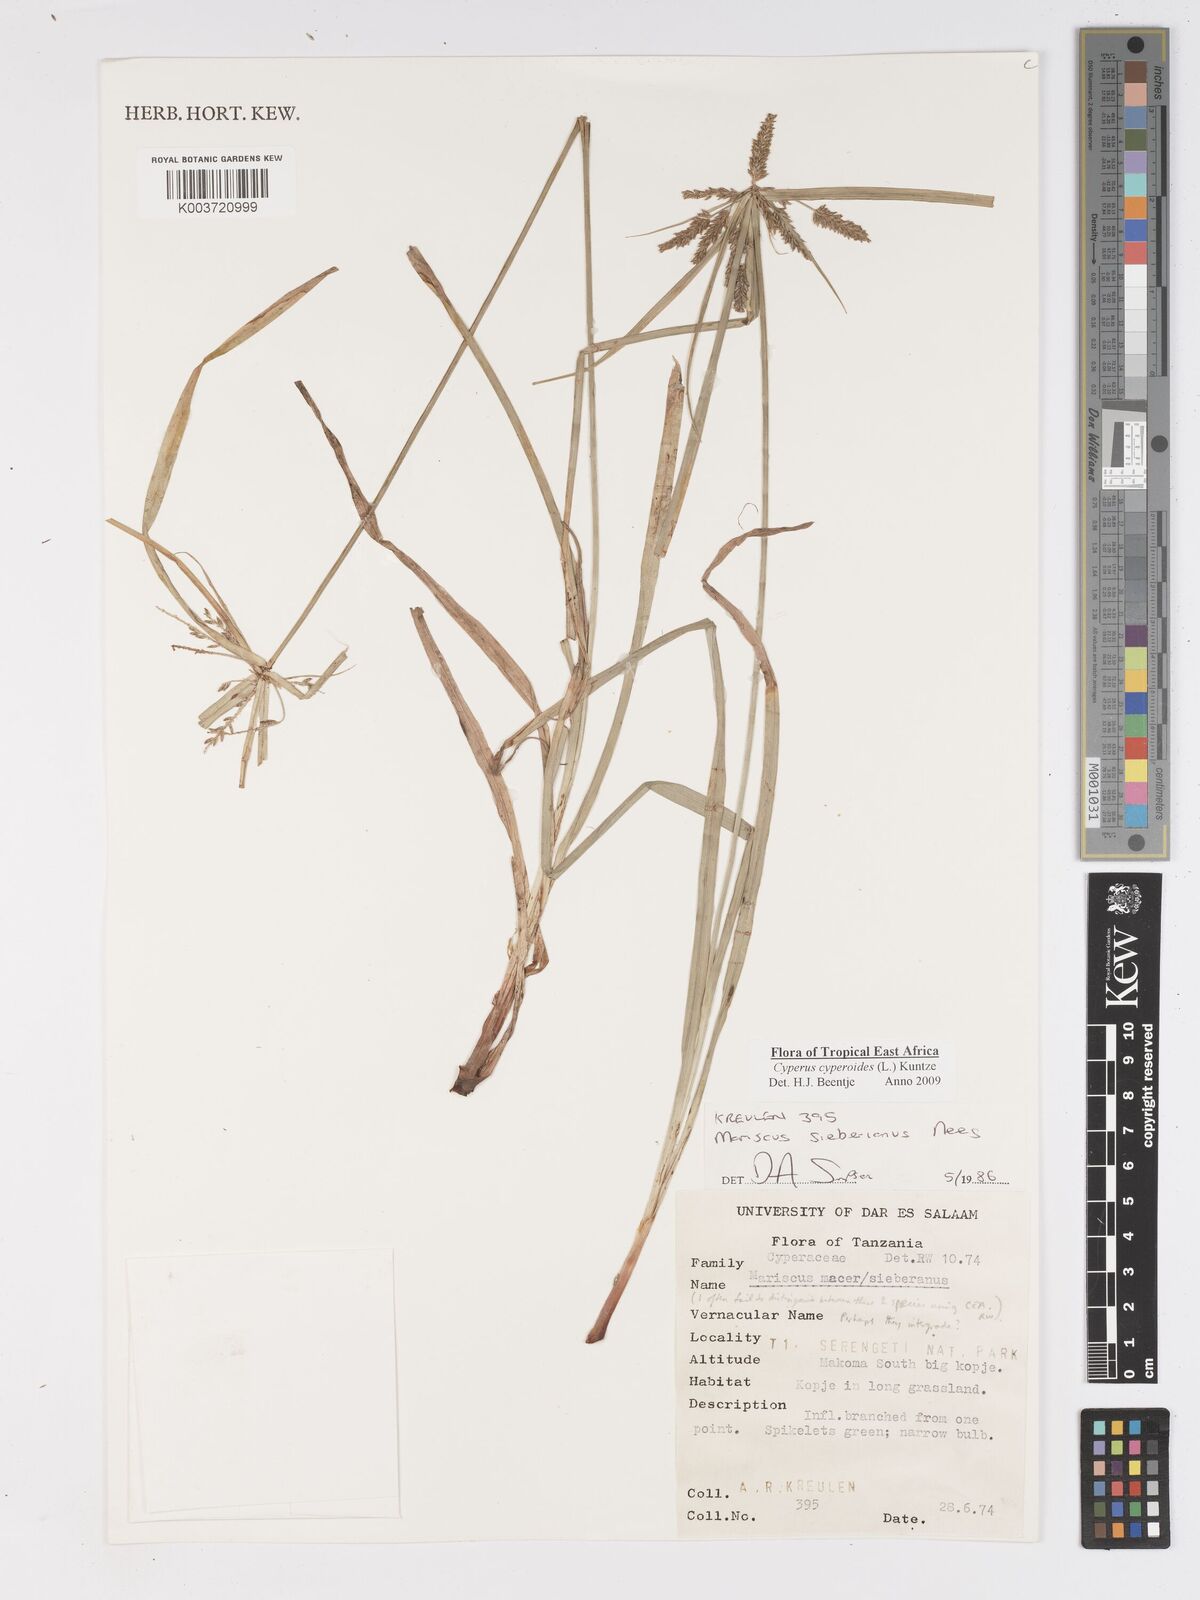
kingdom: Plantae
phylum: Tracheophyta
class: Liliopsida
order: Poales
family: Cyperaceae
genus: Cyperus
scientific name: Cyperus
